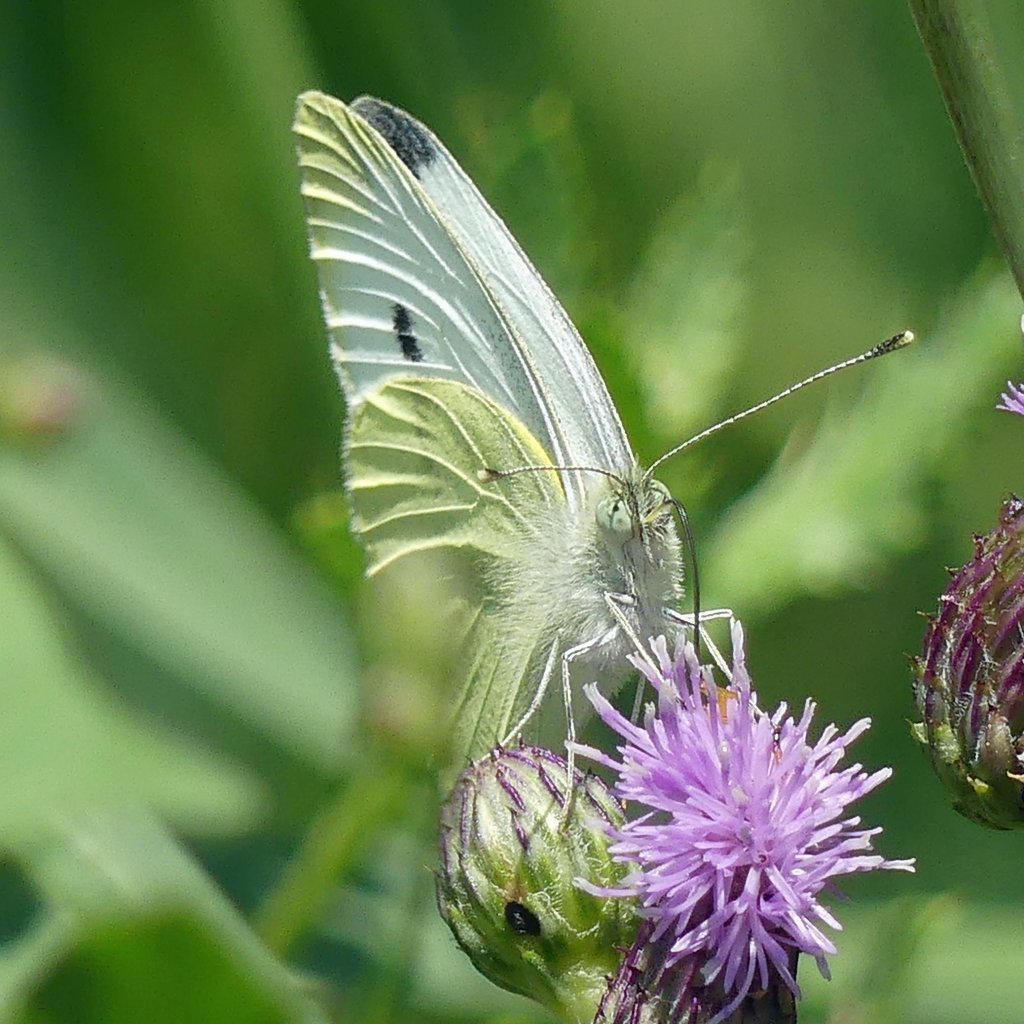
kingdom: Animalia
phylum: Arthropoda
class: Insecta
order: Lepidoptera
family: Pieridae
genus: Pieris
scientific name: Pieris rapae
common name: Cabbage White
